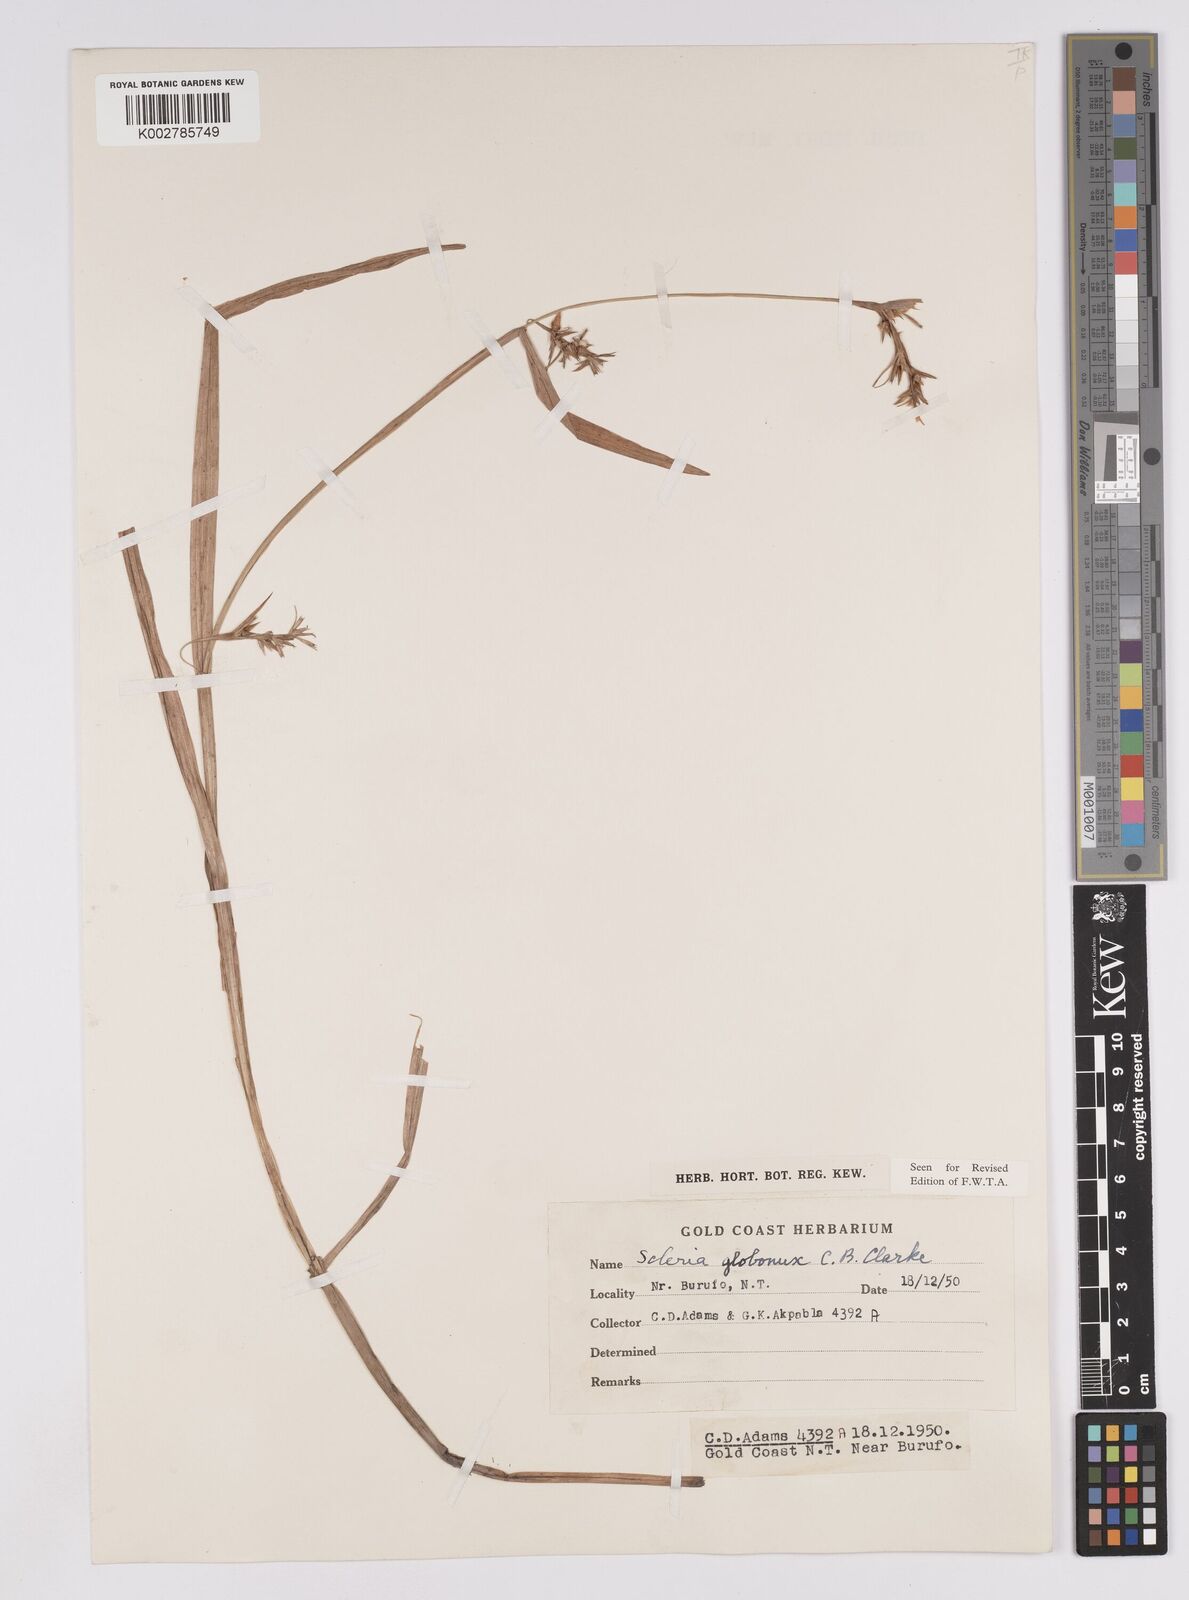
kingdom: Plantae
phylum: Tracheophyta
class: Liliopsida
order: Poales
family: Cyperaceae
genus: Scleria
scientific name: Scleria globonux
